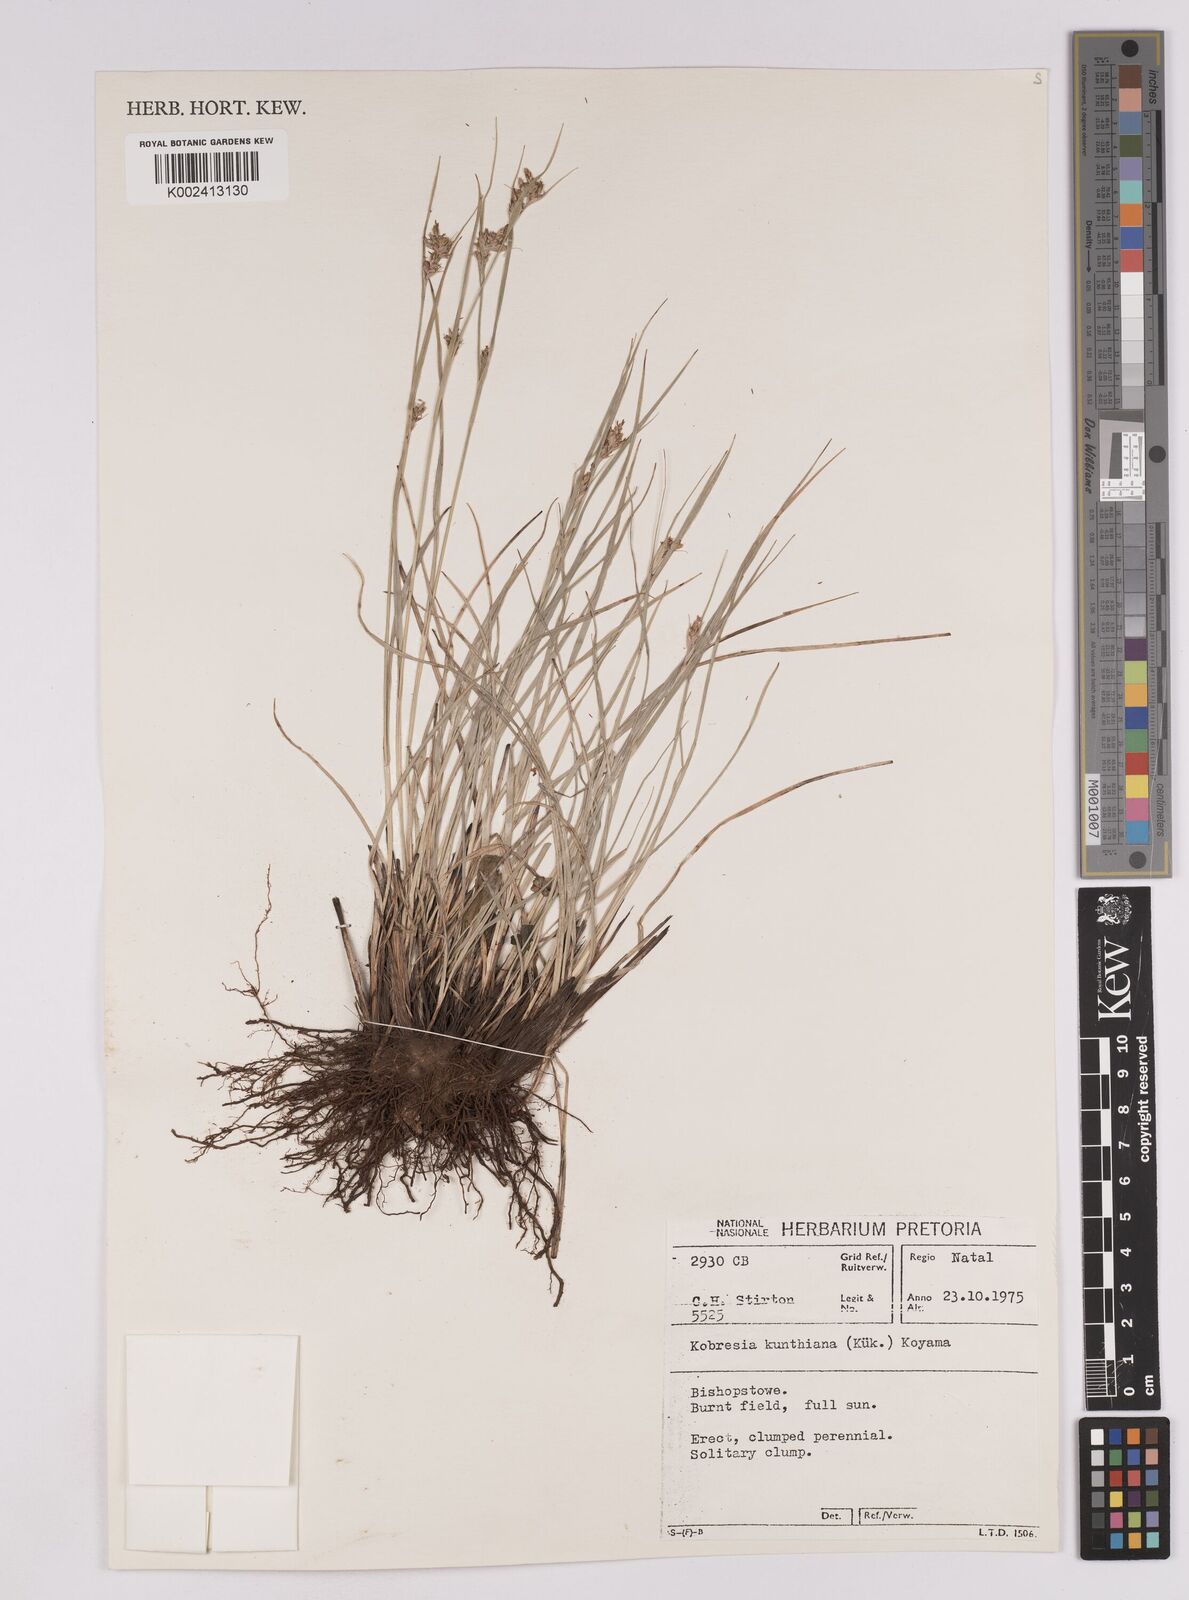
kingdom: Plantae
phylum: Tracheophyta
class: Liliopsida
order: Poales
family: Cyperaceae
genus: Carex
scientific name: Carex spartea
